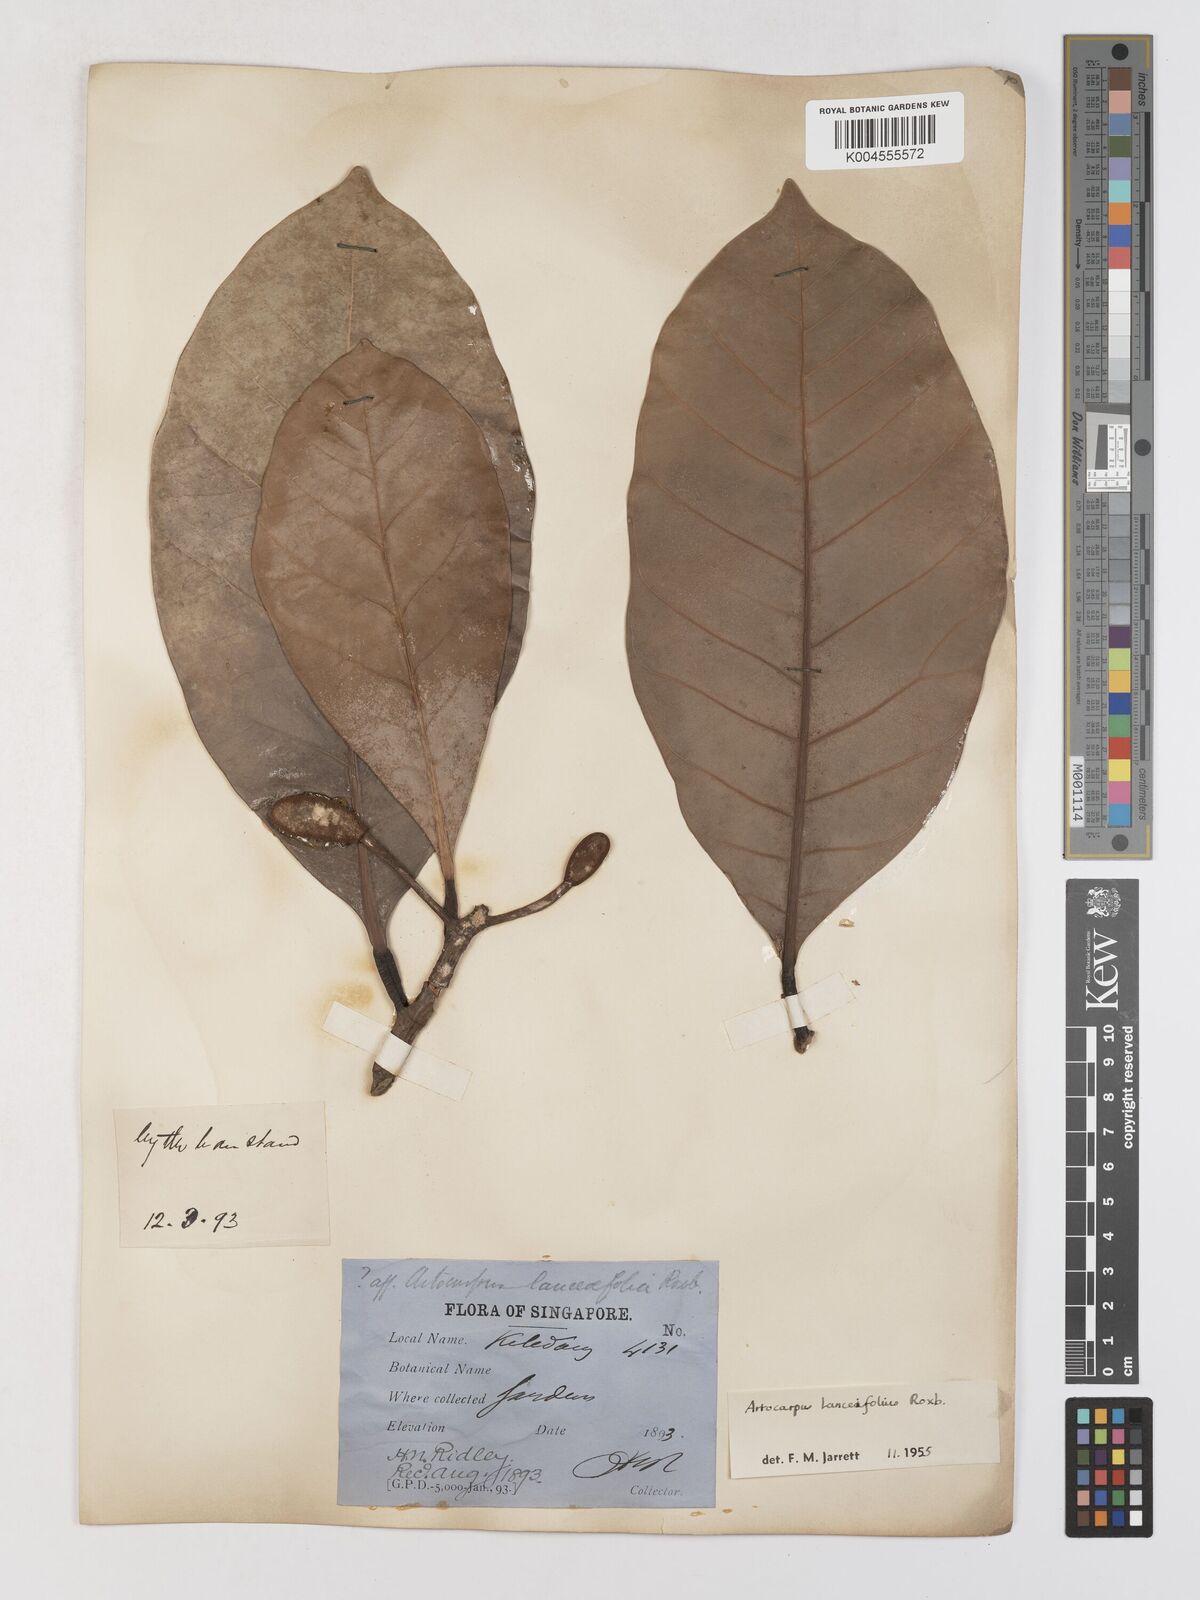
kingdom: Plantae
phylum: Tracheophyta
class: Magnoliopsida
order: Rosales
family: Moraceae
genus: Artocarpus
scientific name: Artocarpus lanceifolius
